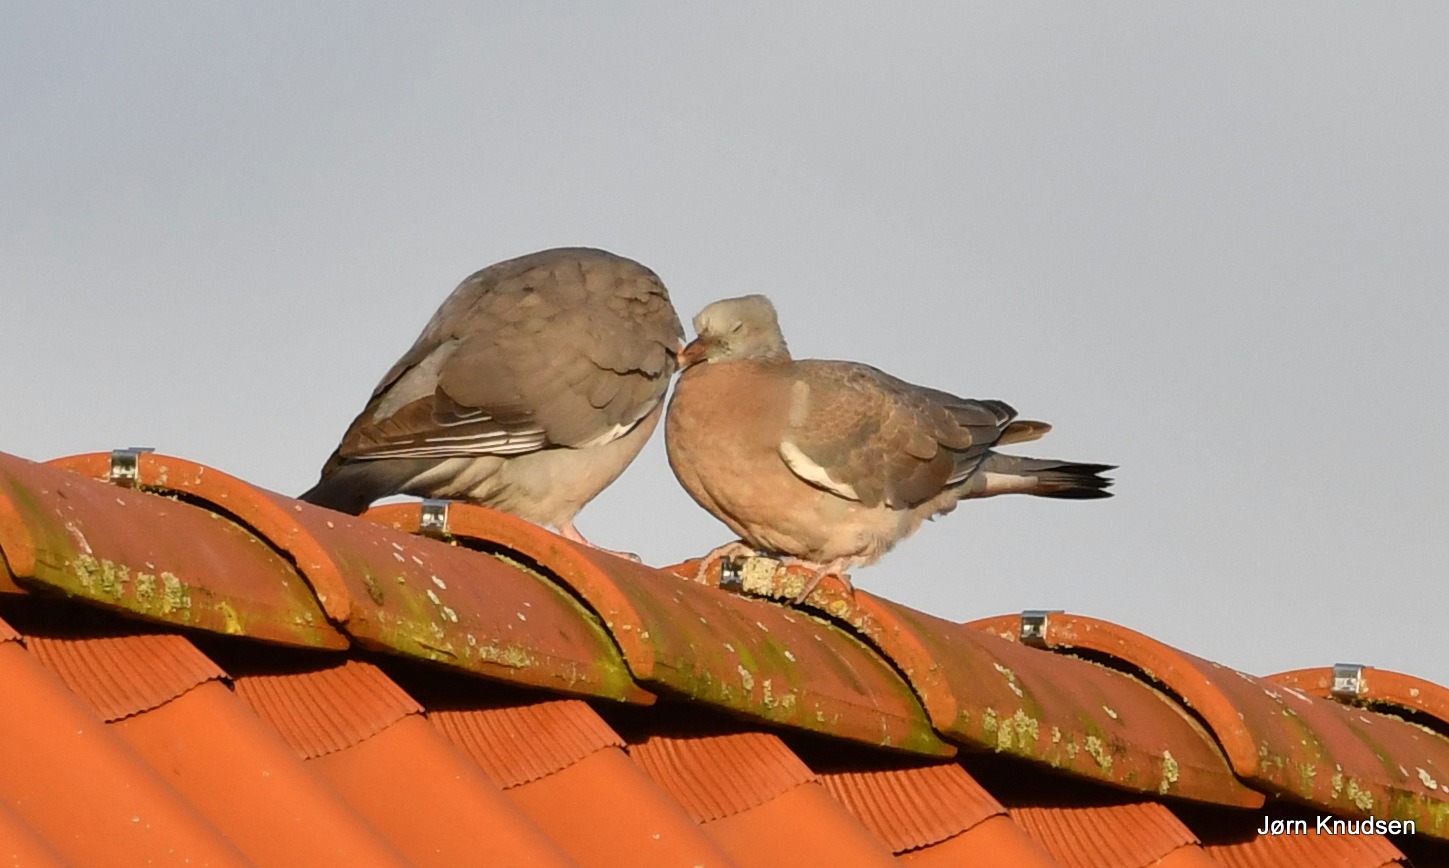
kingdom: Animalia
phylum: Chordata
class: Aves
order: Columbiformes
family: Columbidae
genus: Columba
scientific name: Columba palumbus
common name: Ringdue
